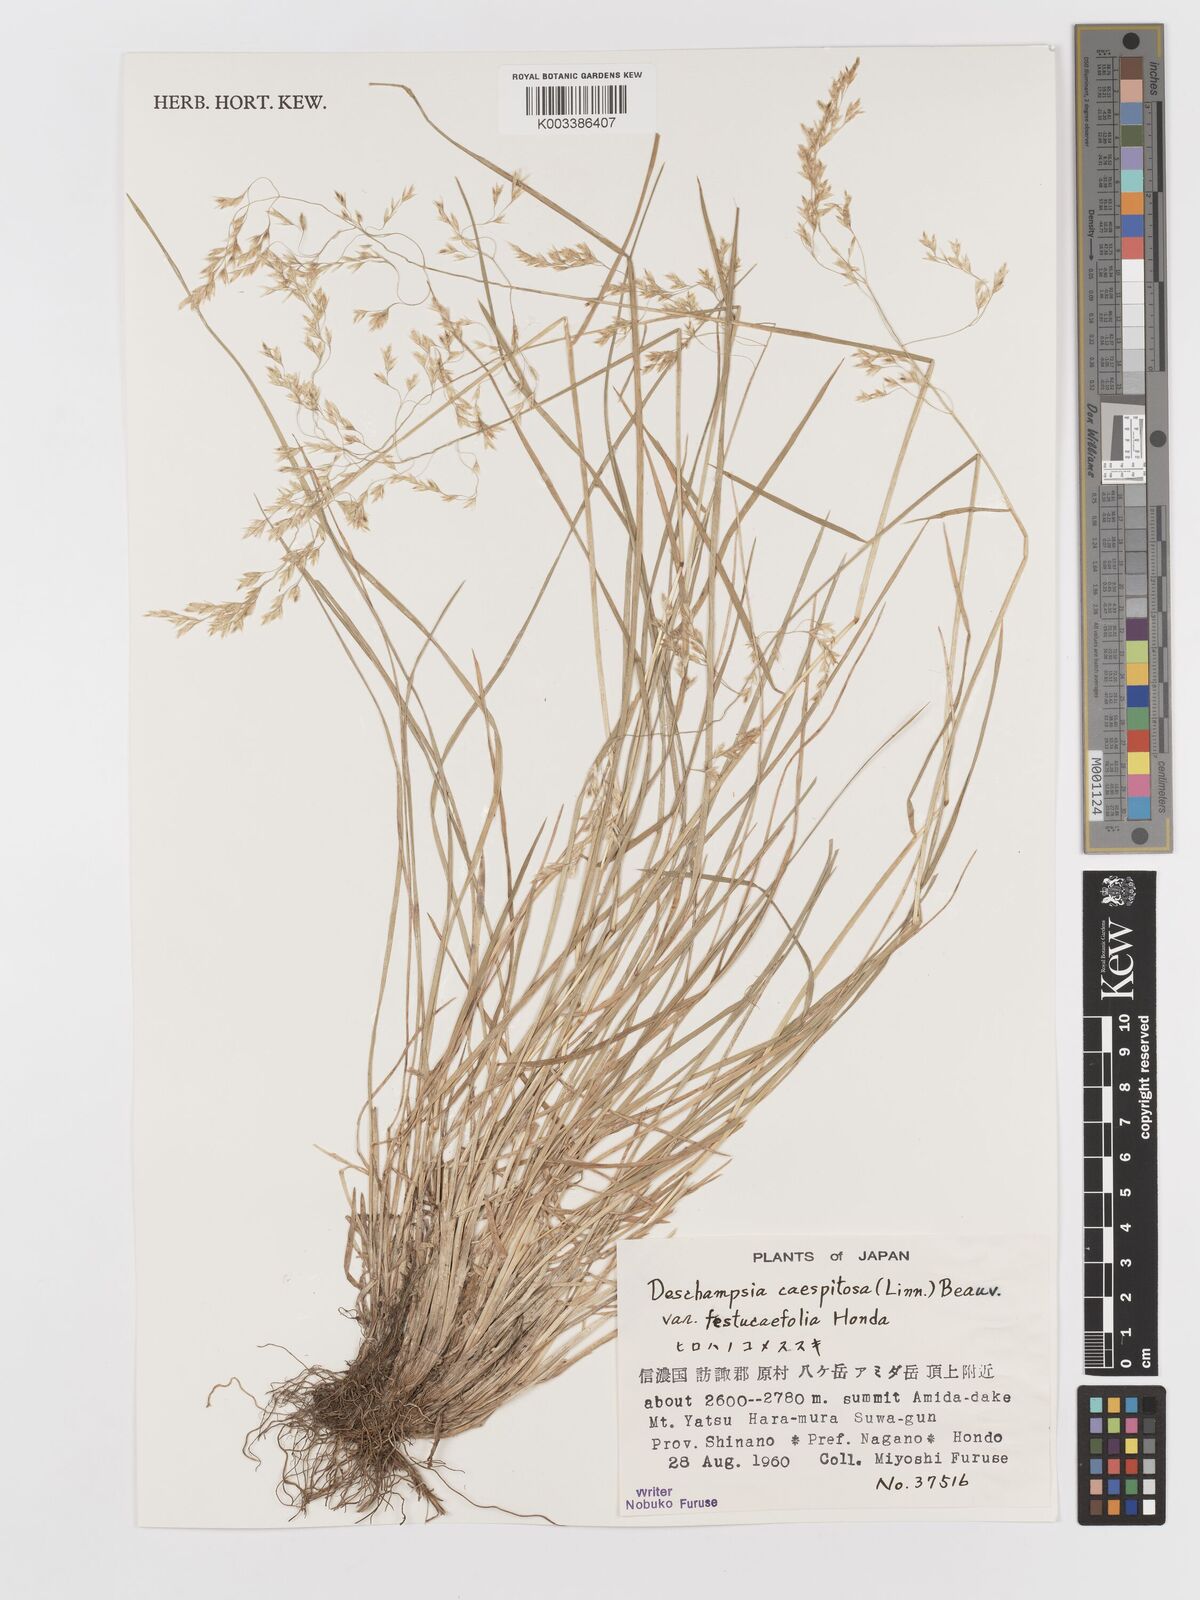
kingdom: Plantae
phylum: Tracheophyta
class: Liliopsida
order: Poales
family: Poaceae
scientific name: Poaceae
